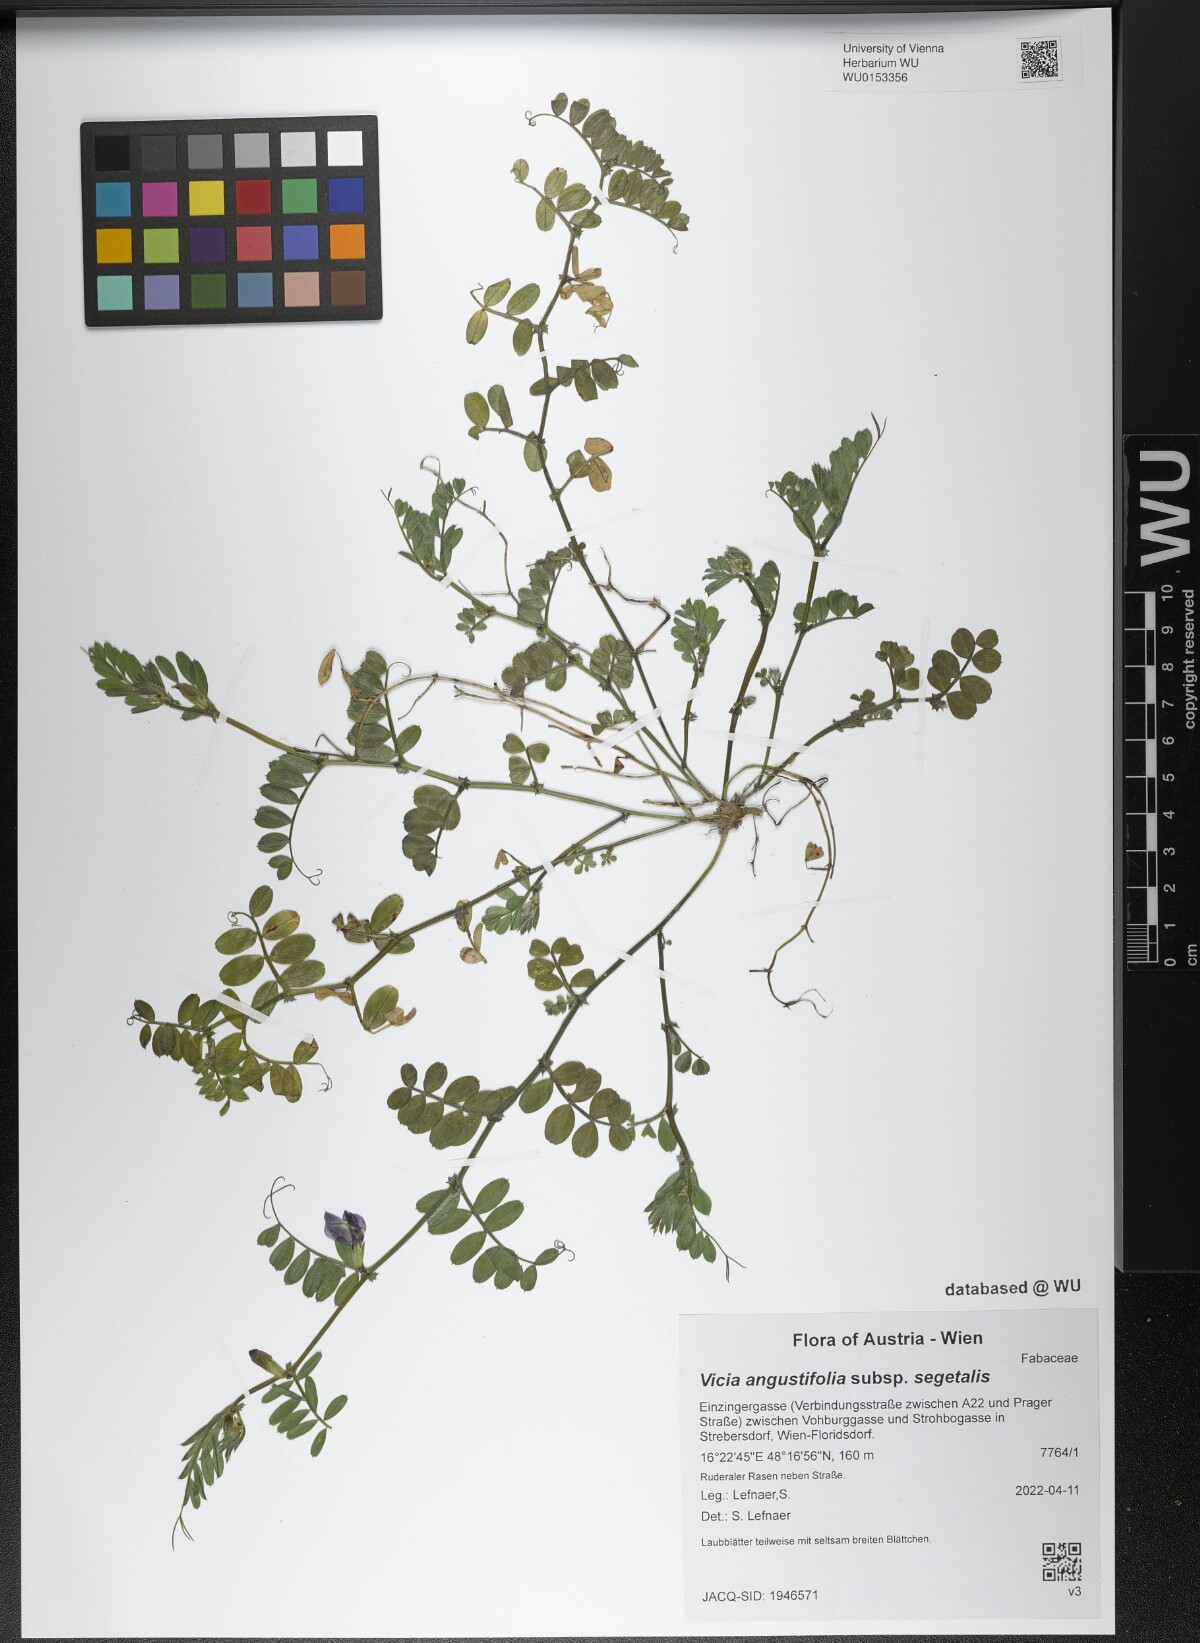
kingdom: Plantae
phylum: Tracheophyta
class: Magnoliopsida
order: Fabales
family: Fabaceae
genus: Vicia
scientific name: Vicia sativa
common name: Garden vetch
